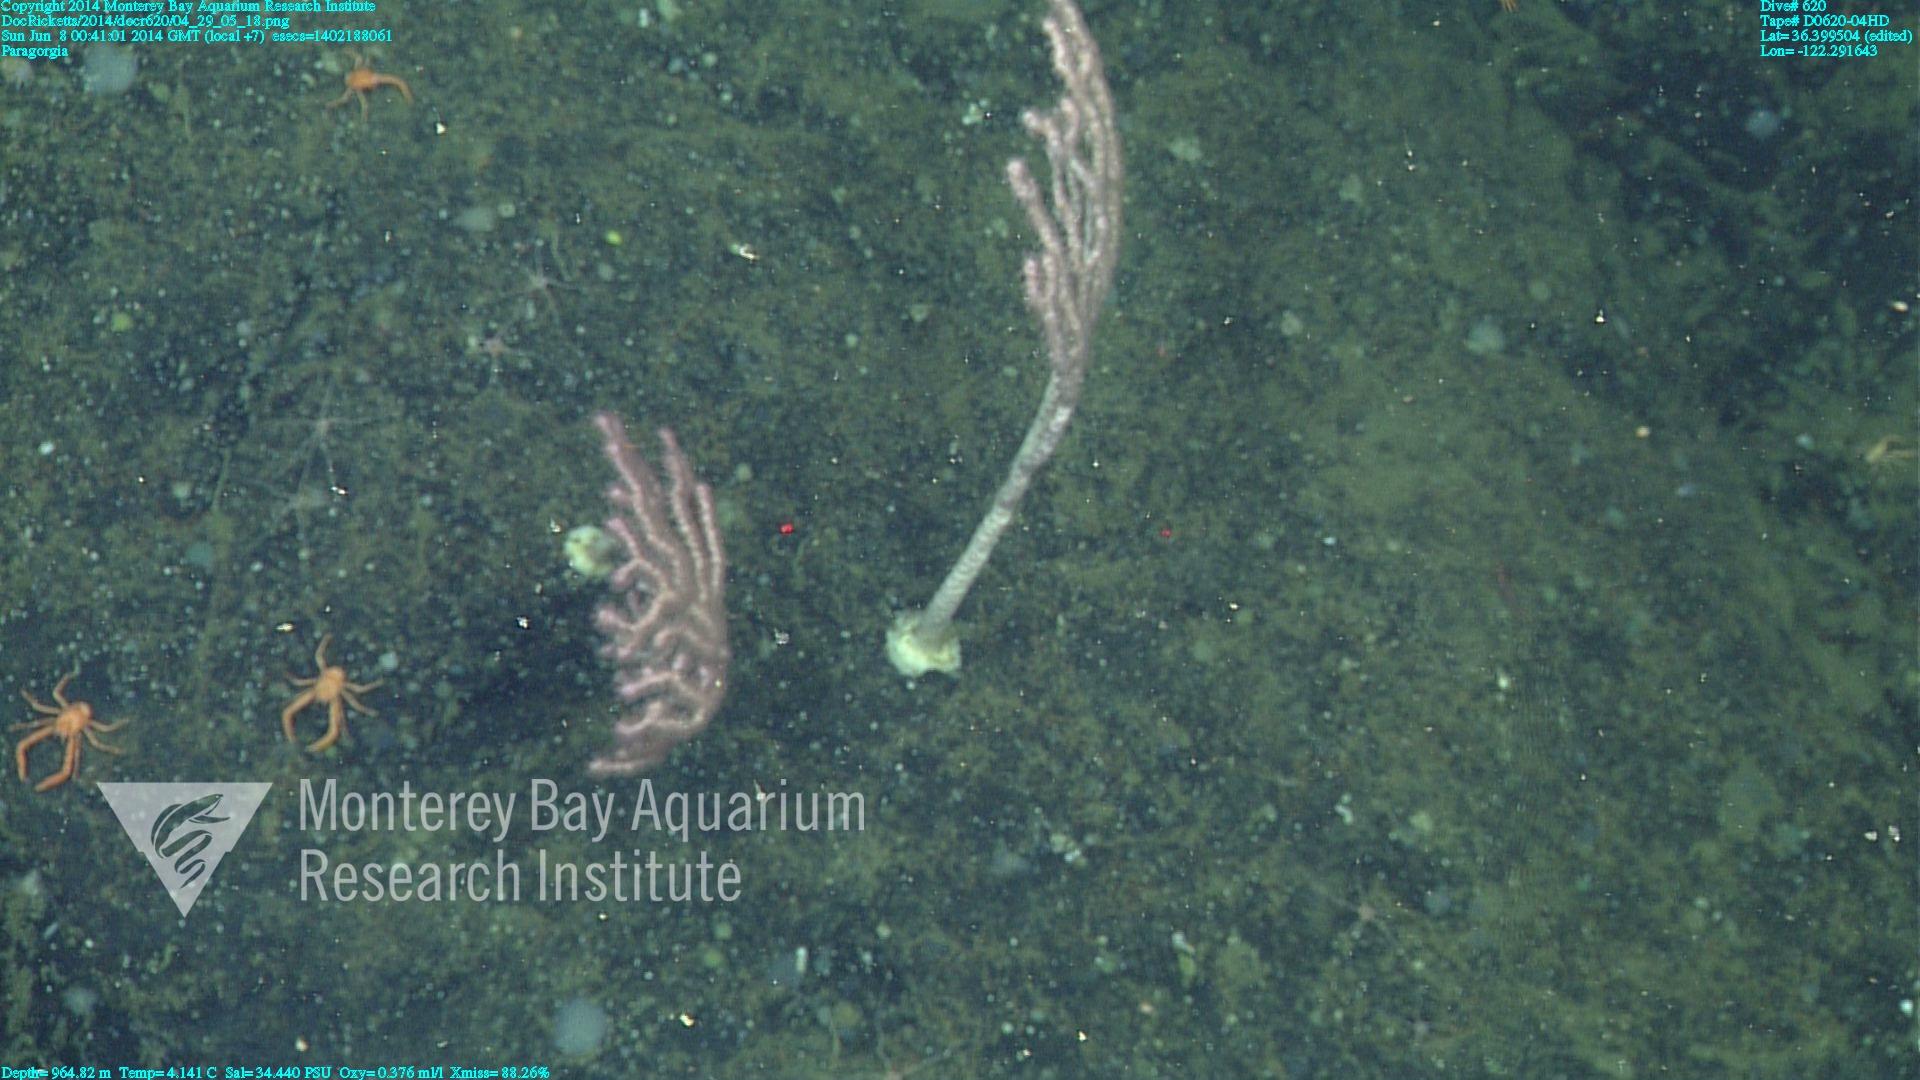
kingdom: Animalia
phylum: Cnidaria
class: Anthozoa
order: Scleralcyonacea
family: Coralliidae
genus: Sibogagorgia
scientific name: Sibogagorgia cauliflora
